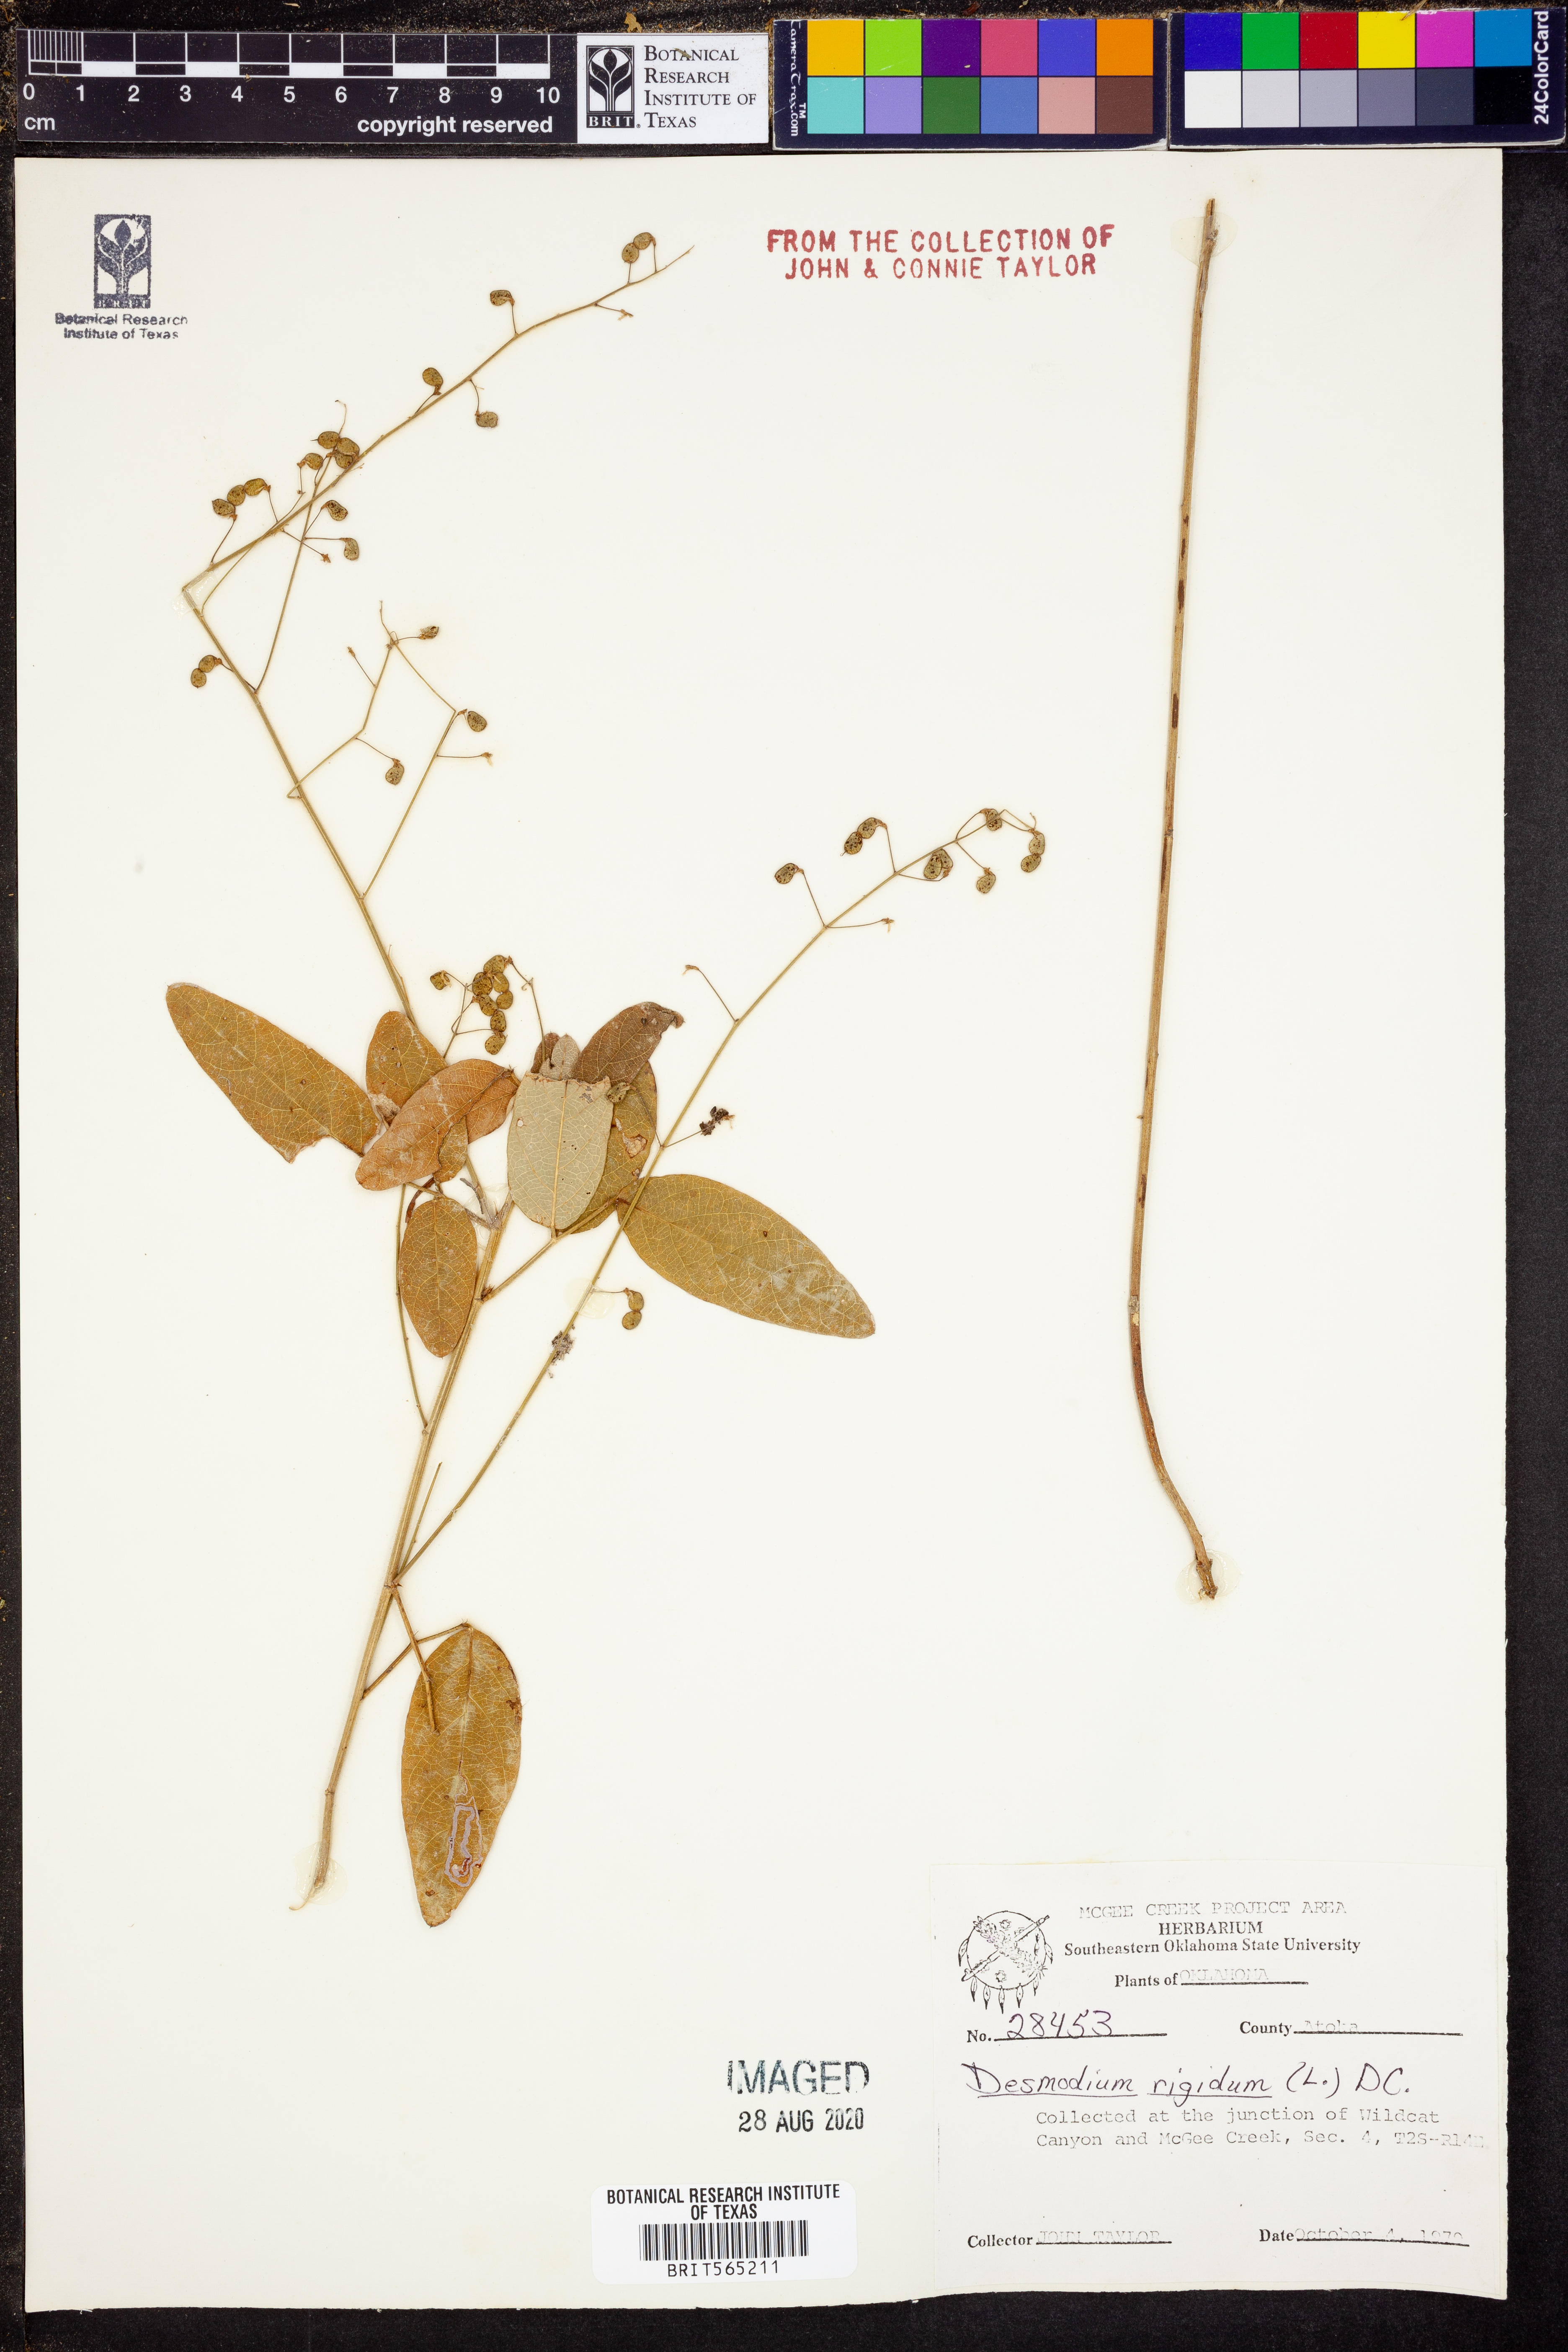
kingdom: Plantae
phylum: Tracheophyta
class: Magnoliopsida
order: Fabales
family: Fabaceae
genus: Desmodium
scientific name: Desmodium obtusum
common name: Stiff tick trefoil
